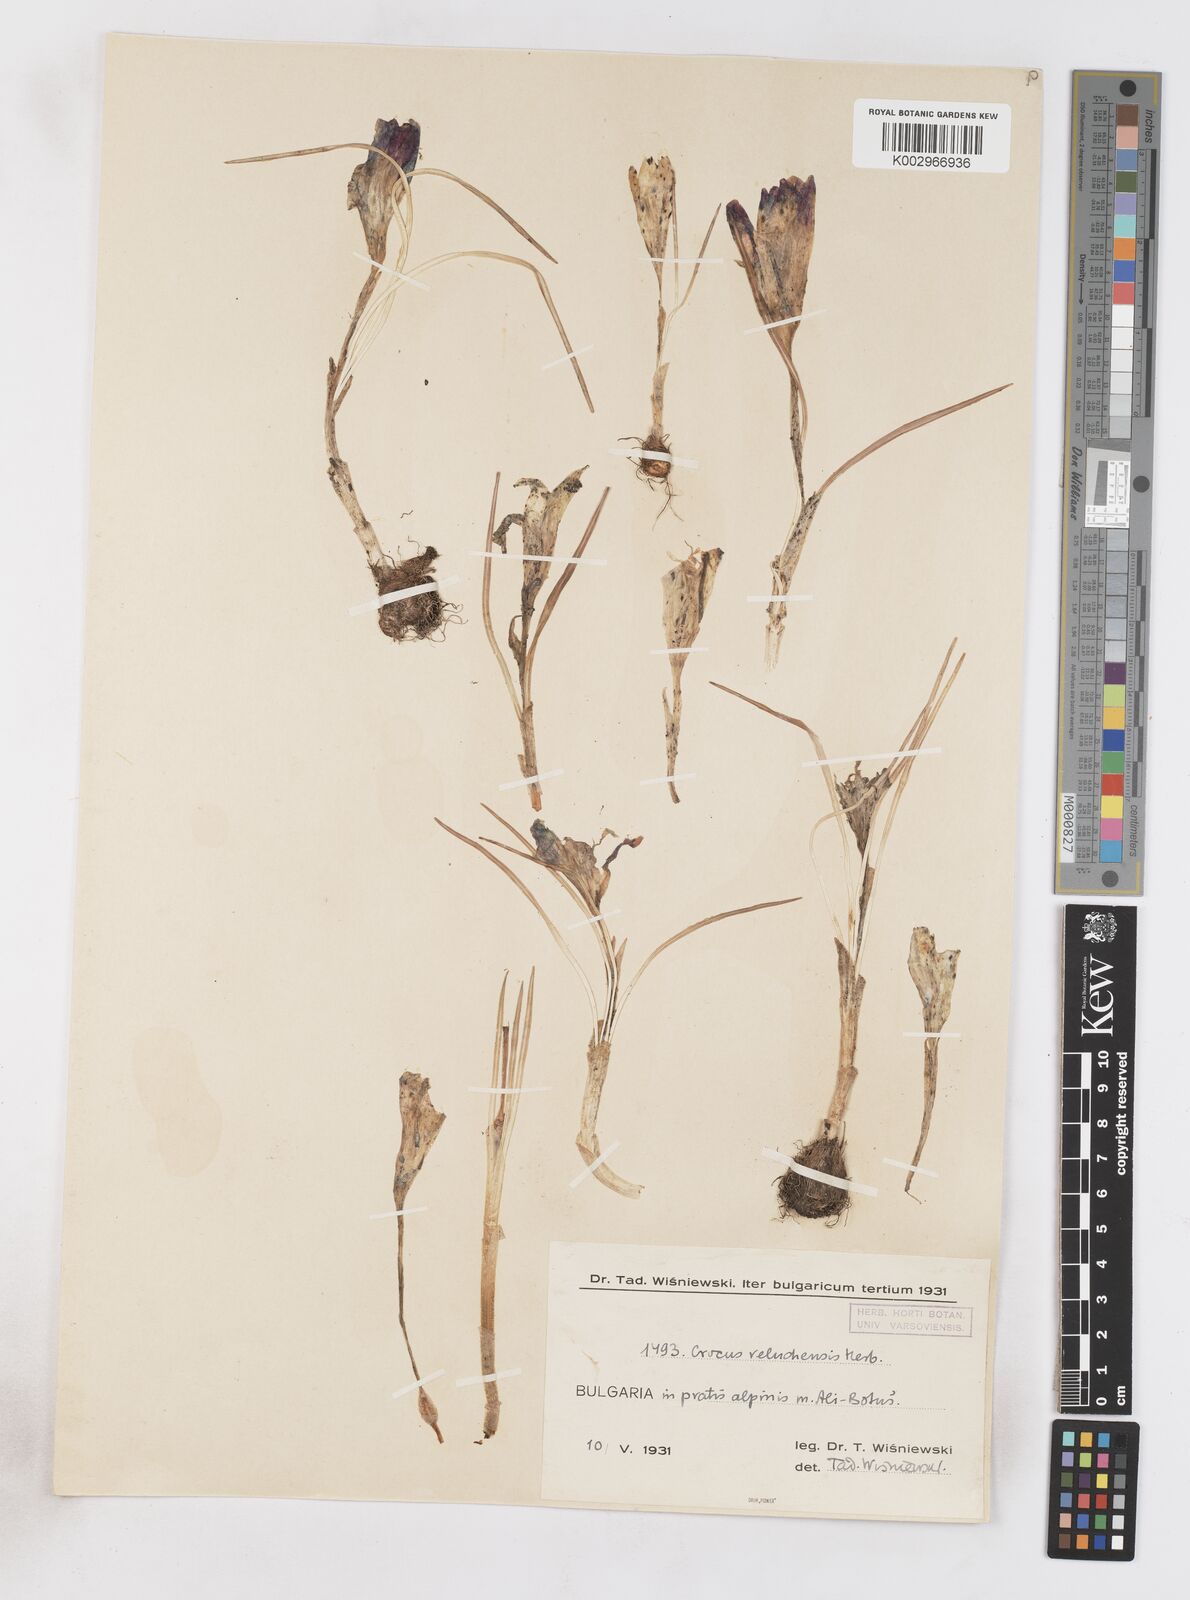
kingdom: Plantae
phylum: Tracheophyta
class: Liliopsida
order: Asparagales
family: Iridaceae
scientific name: Iridaceae
